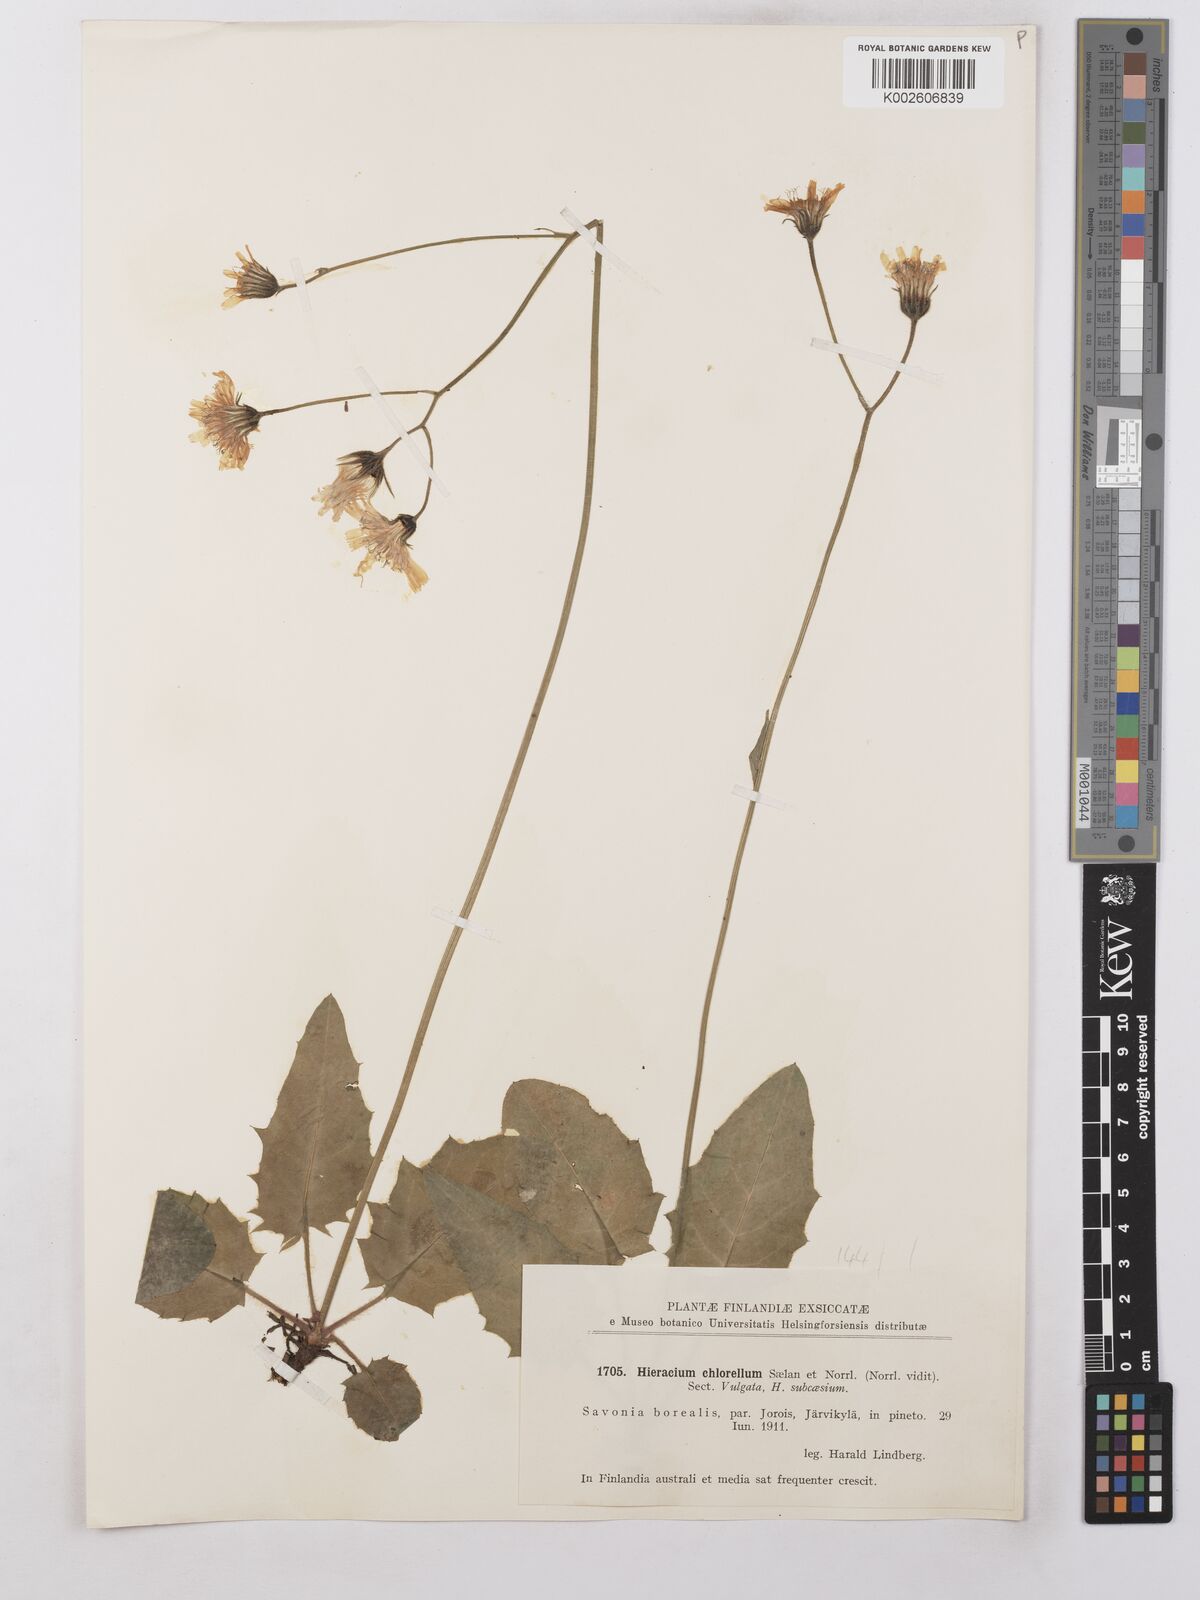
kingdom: Plantae
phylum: Tracheophyta
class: Magnoliopsida
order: Asterales
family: Asteraceae
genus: Hieracium
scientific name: Hieracium chlorellum
